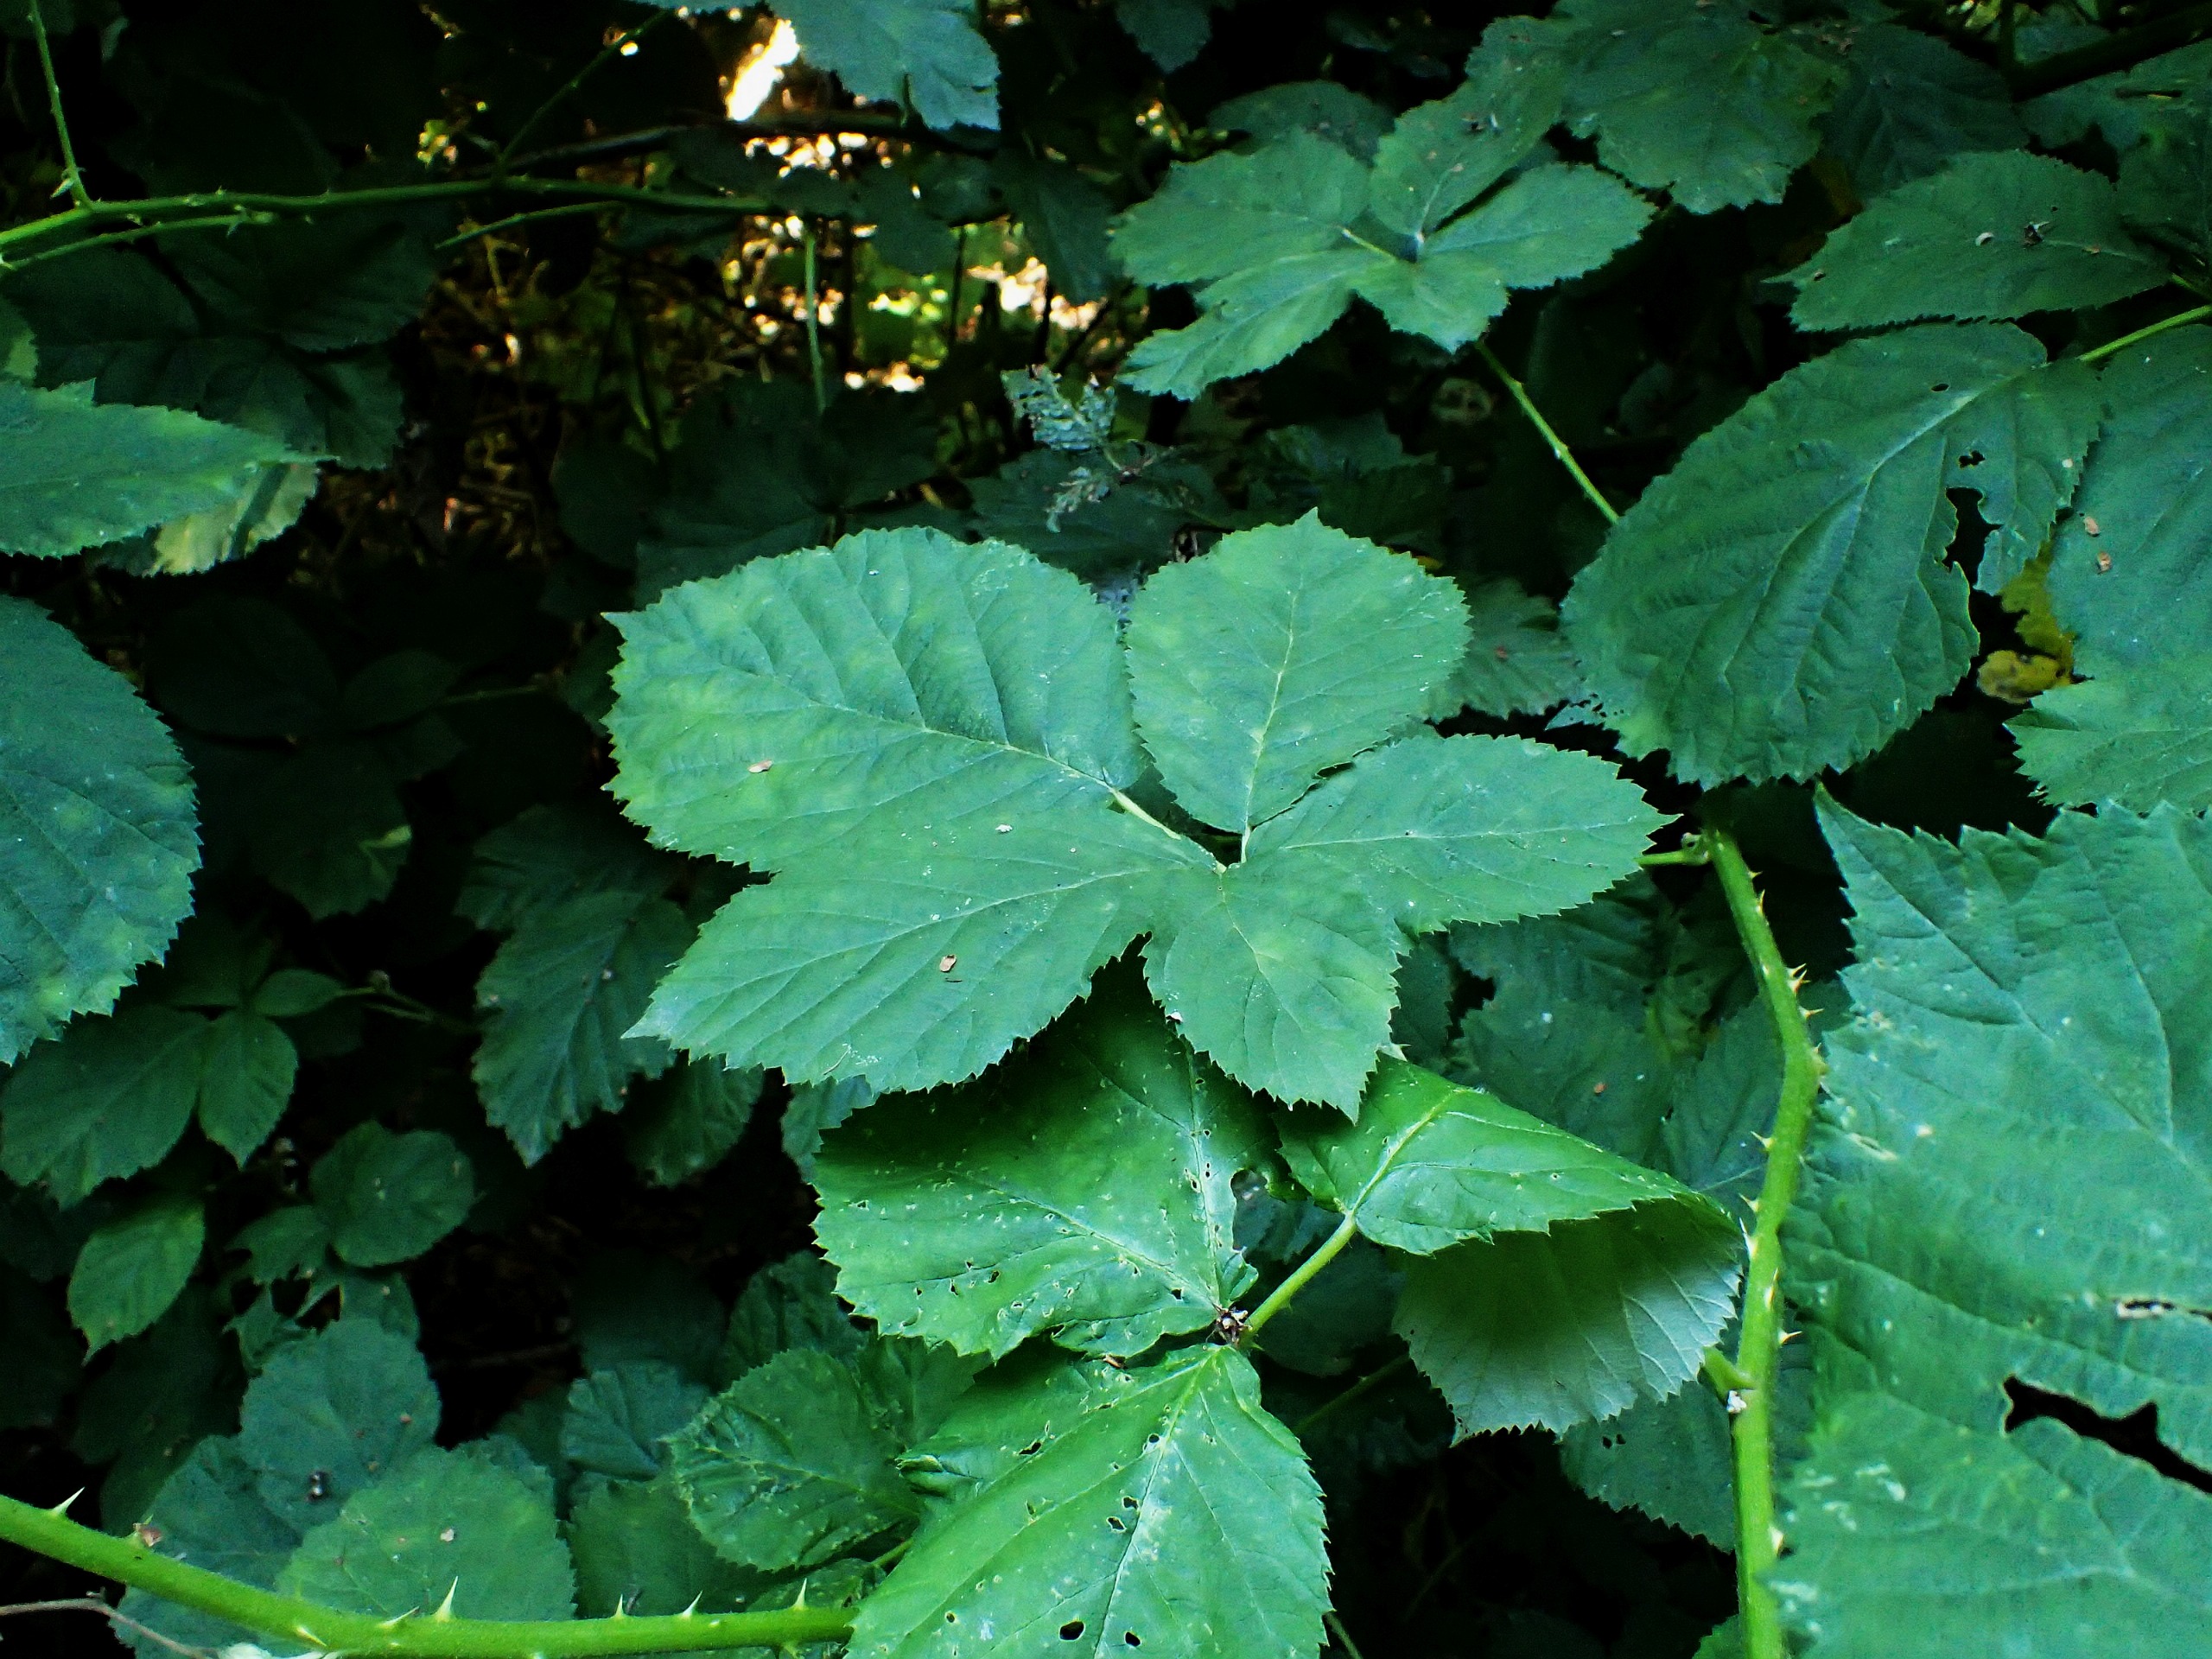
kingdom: Plantae
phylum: Tracheophyta
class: Magnoliopsida
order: Rosales
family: Rosaceae
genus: Rubus
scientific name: Rubus armeniacus
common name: Armensk brombær
